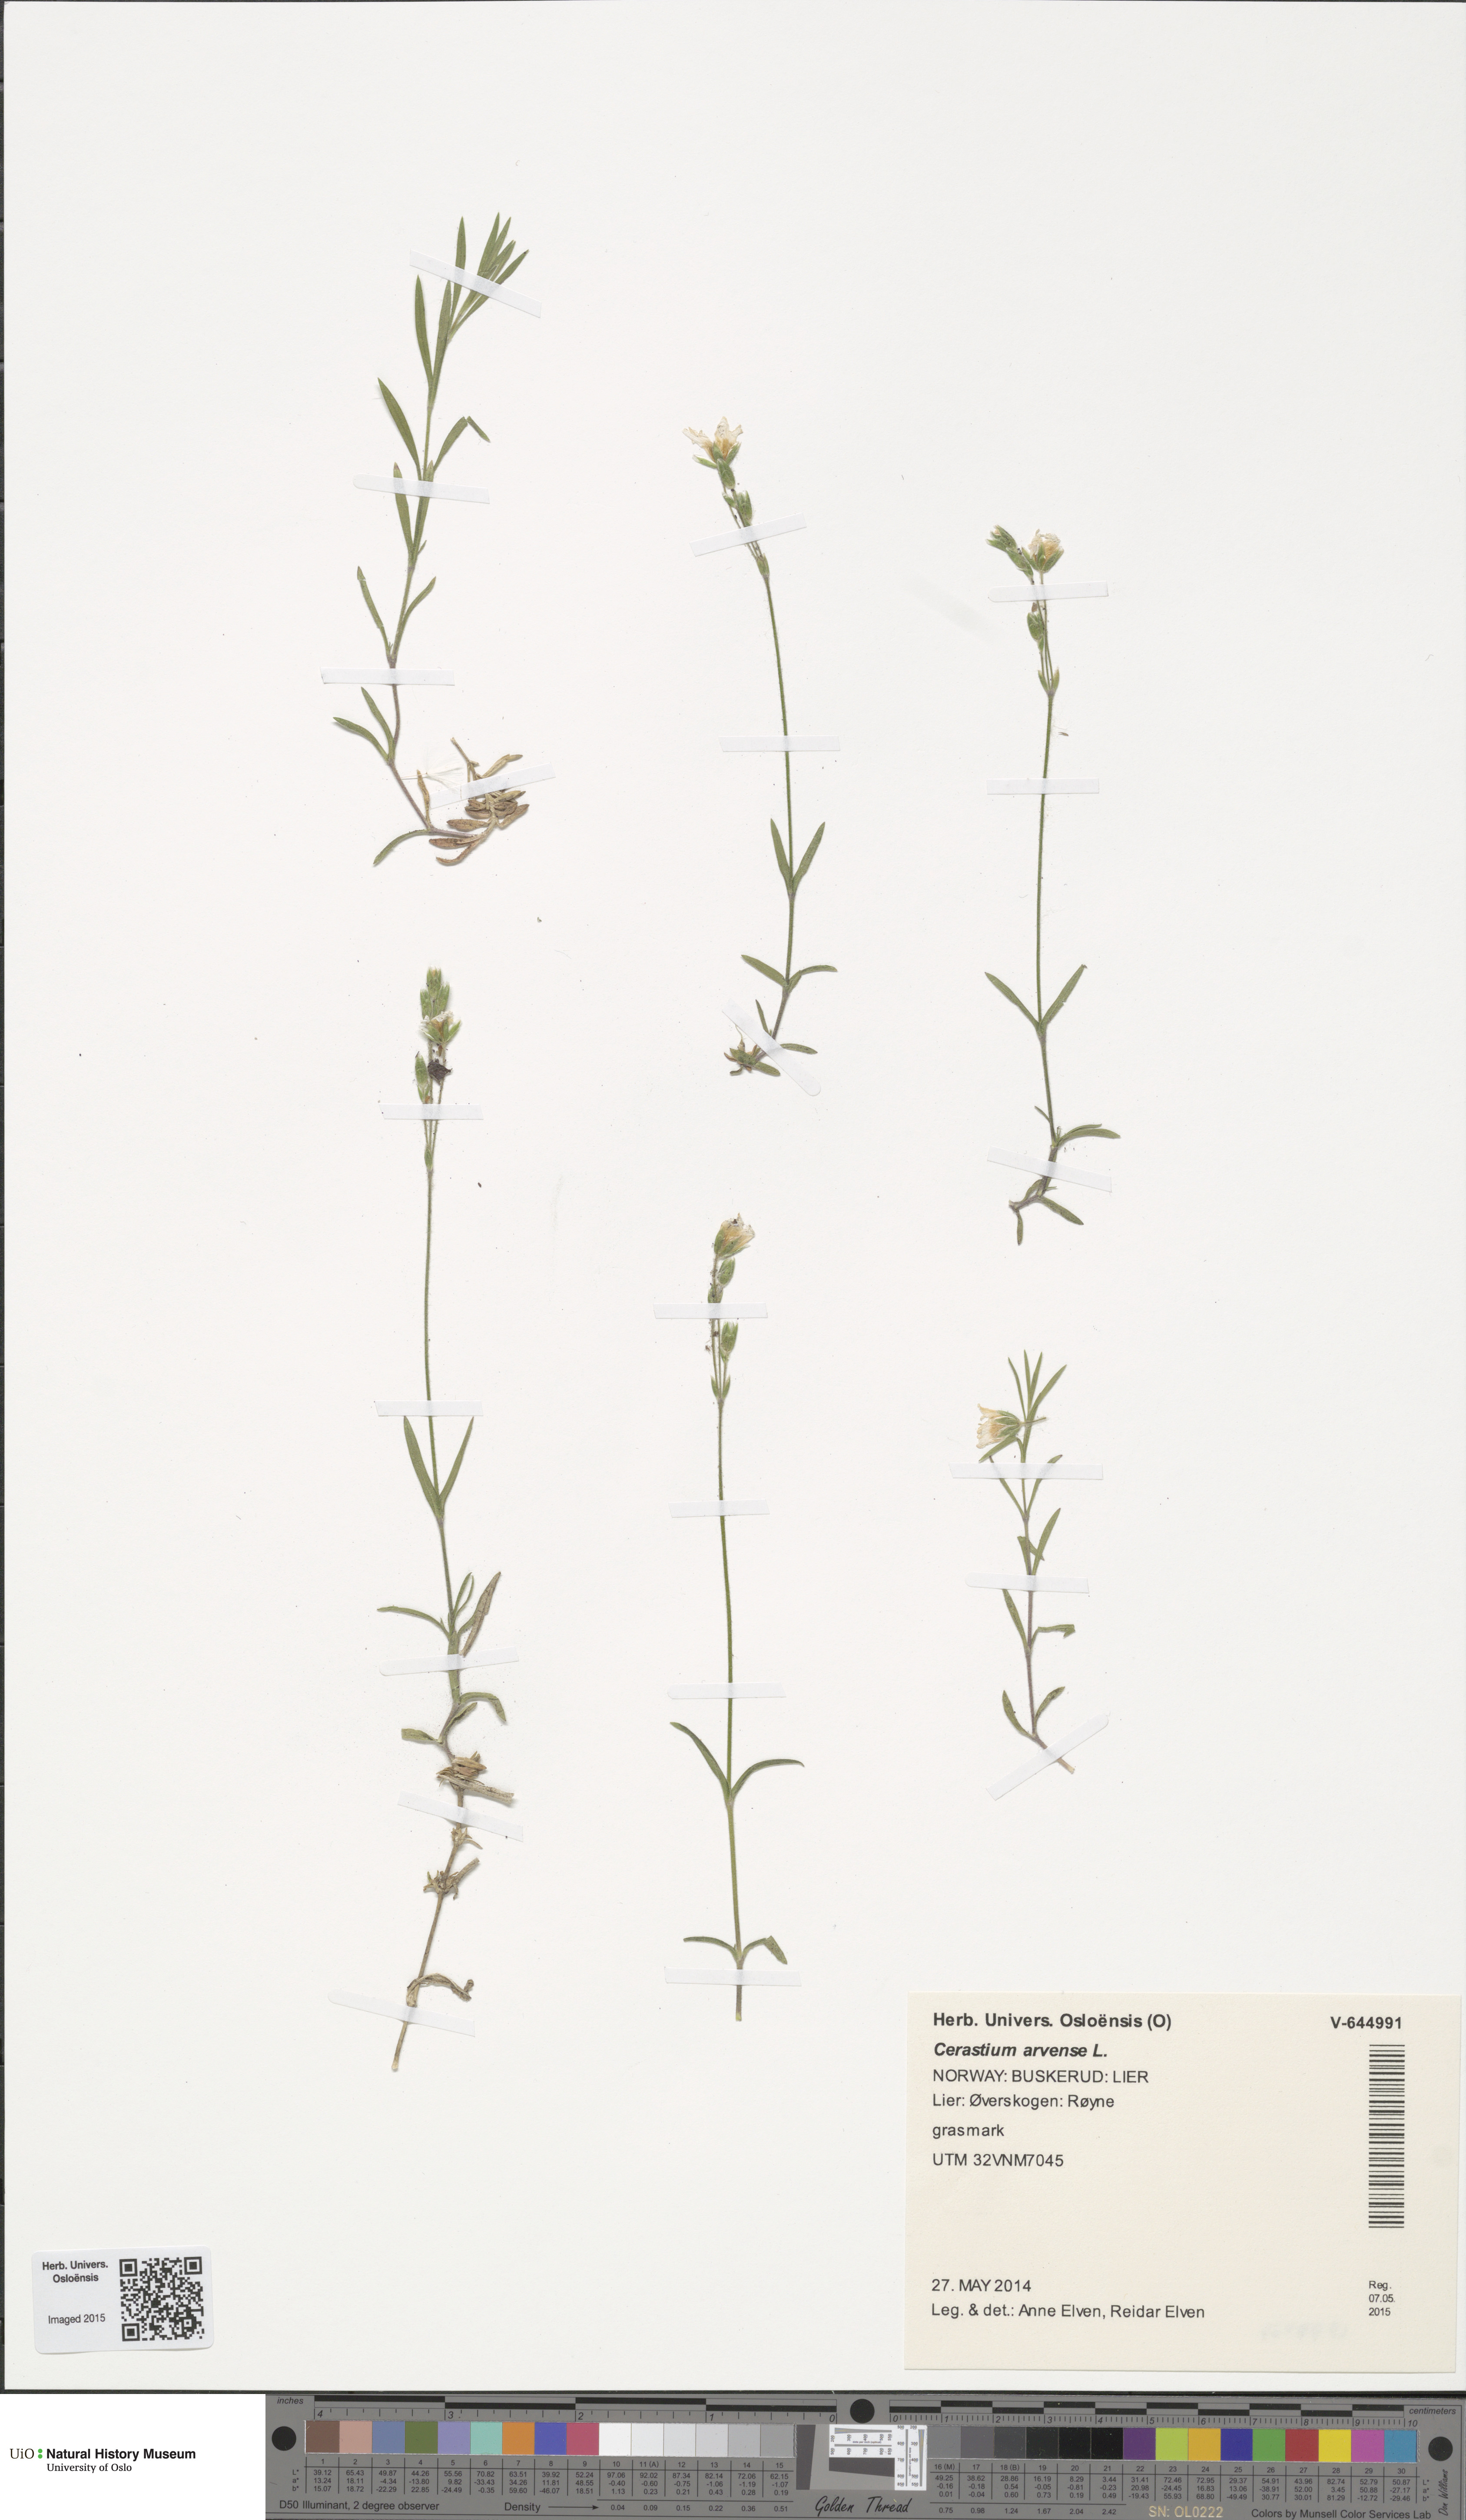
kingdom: Plantae
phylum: Tracheophyta
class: Magnoliopsida
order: Caryophyllales
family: Caryophyllaceae
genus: Cerastium
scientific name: Cerastium arvense
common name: Field mouse-ear
